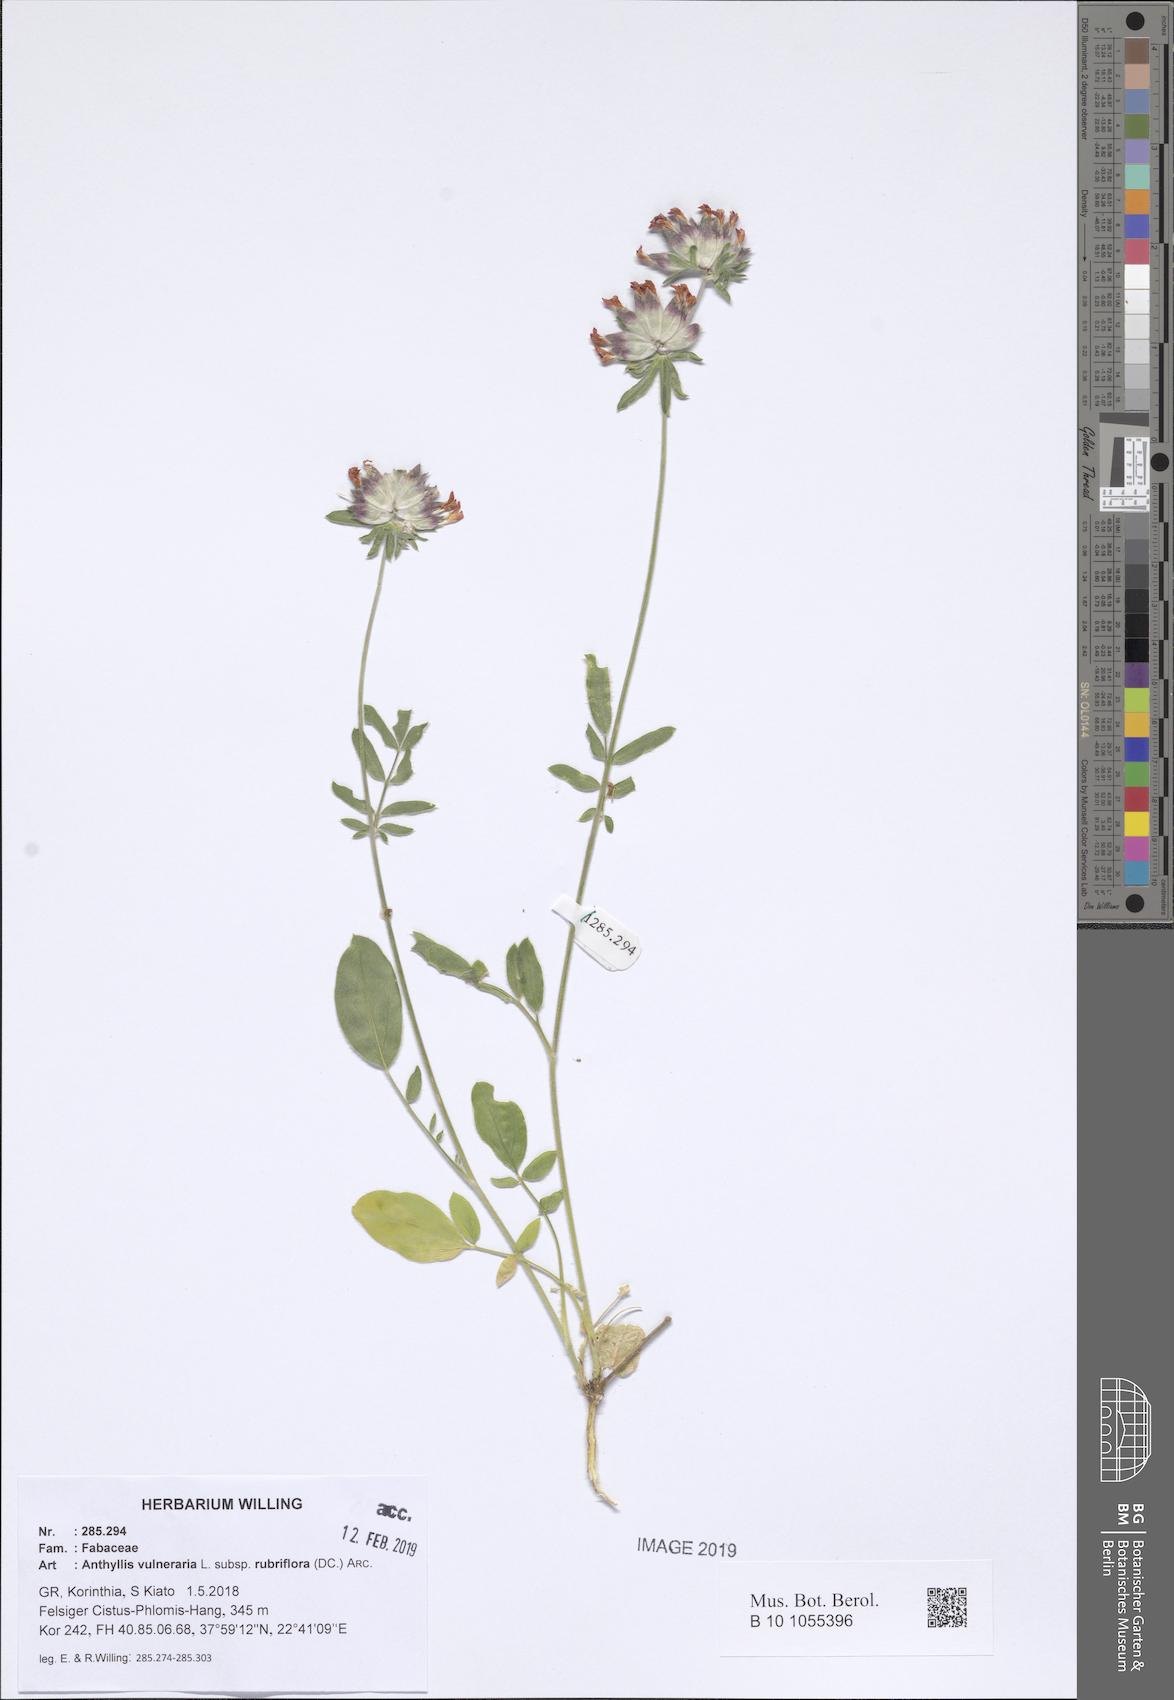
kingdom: Plantae
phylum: Tracheophyta
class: Magnoliopsida
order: Fabales
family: Fabaceae
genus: Anthyllis
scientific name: Anthyllis vulneraria
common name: Kidney vetch
